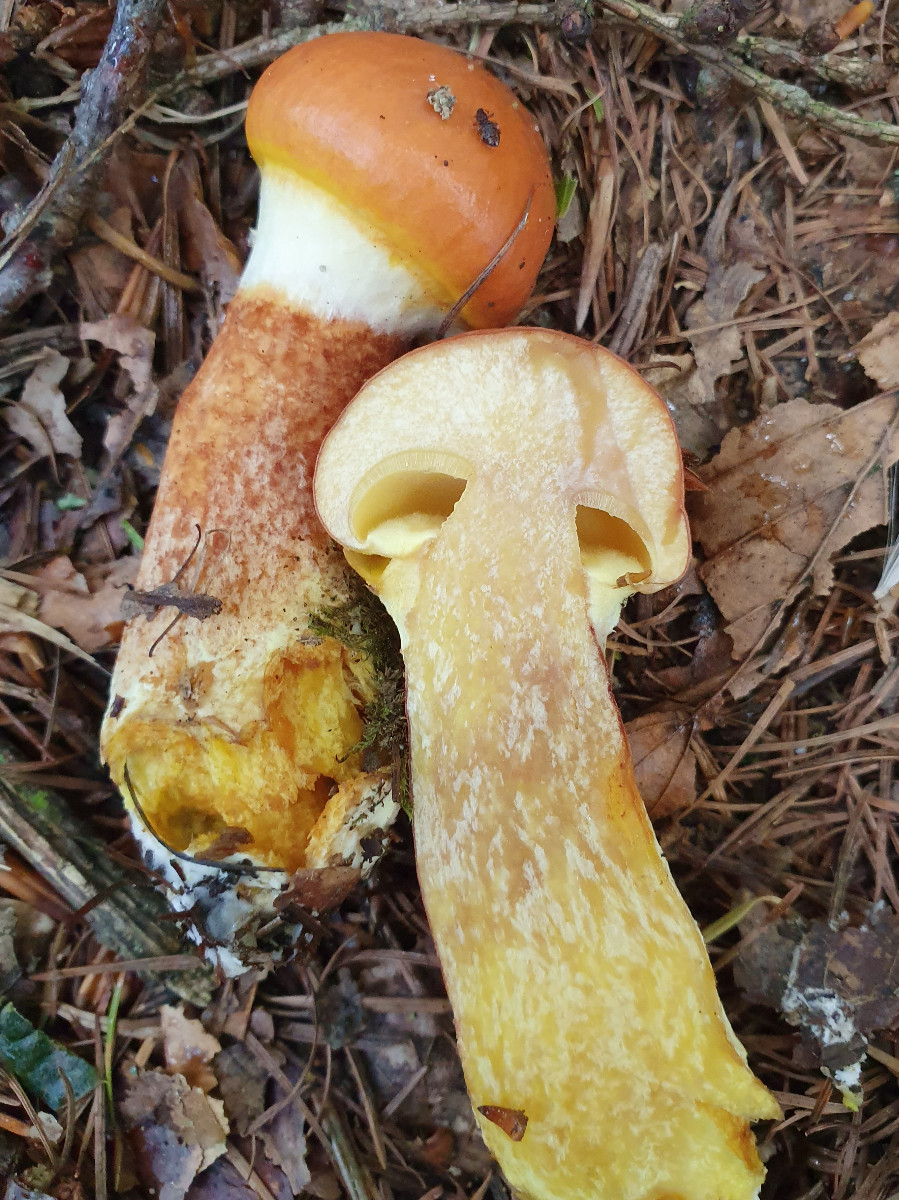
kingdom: Fungi
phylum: Basidiomycota
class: Agaricomycetes
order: Boletales
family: Suillaceae
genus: Suillus
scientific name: Suillus grevillei
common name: lærke-slimrørhat
